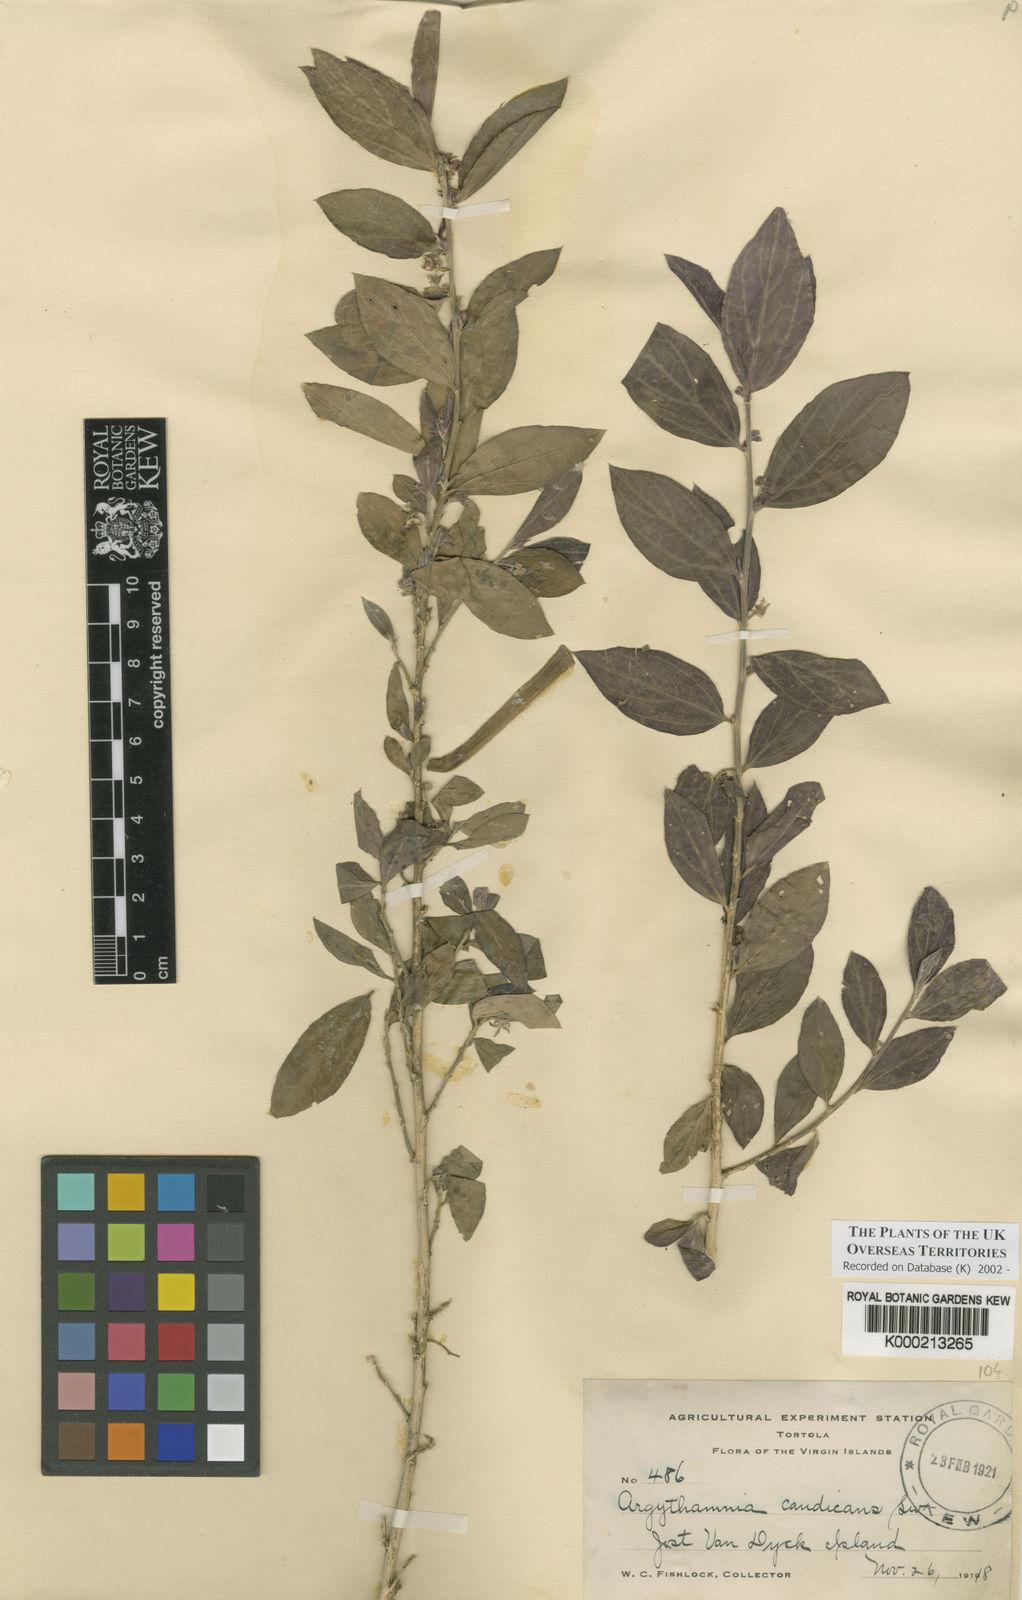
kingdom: Plantae
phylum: Tracheophyta
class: Magnoliopsida
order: Malpighiales
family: Euphorbiaceae
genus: Argythamnia
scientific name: Argythamnia candicans
